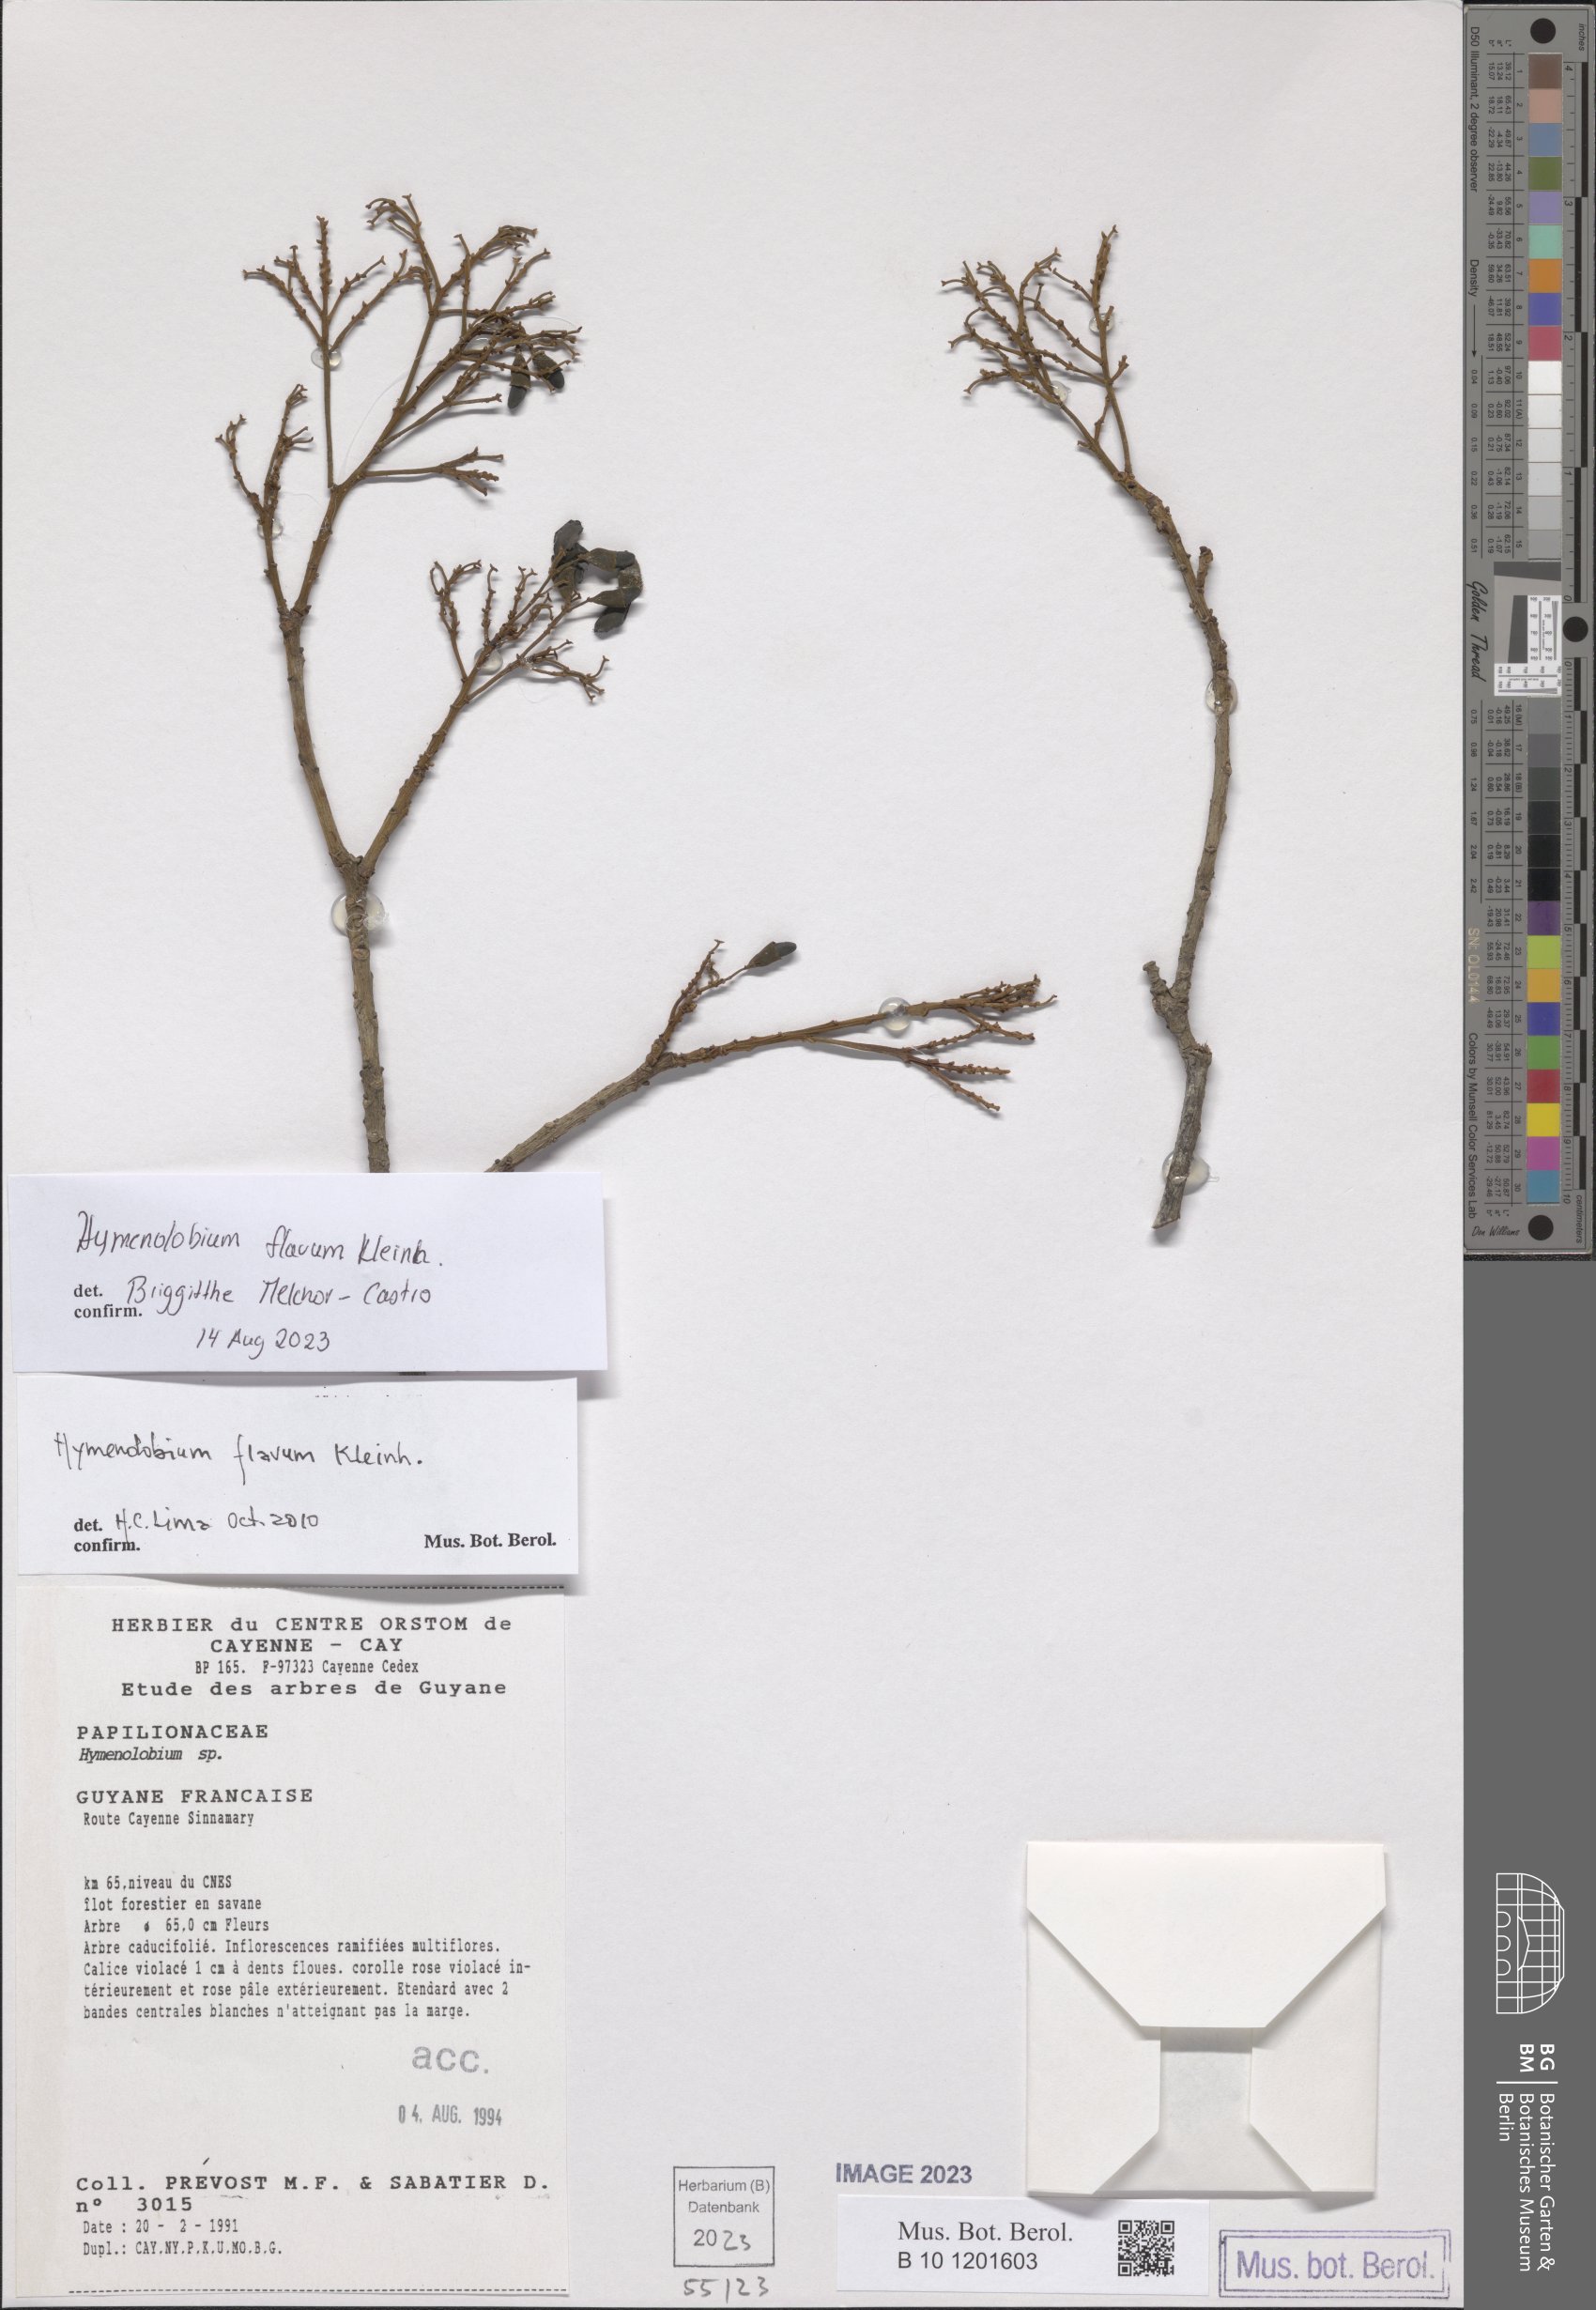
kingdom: Plantae
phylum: Tracheophyta
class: Magnoliopsida
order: Fabales
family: Fabaceae
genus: Hymenolobium
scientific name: Hymenolobium flavum
